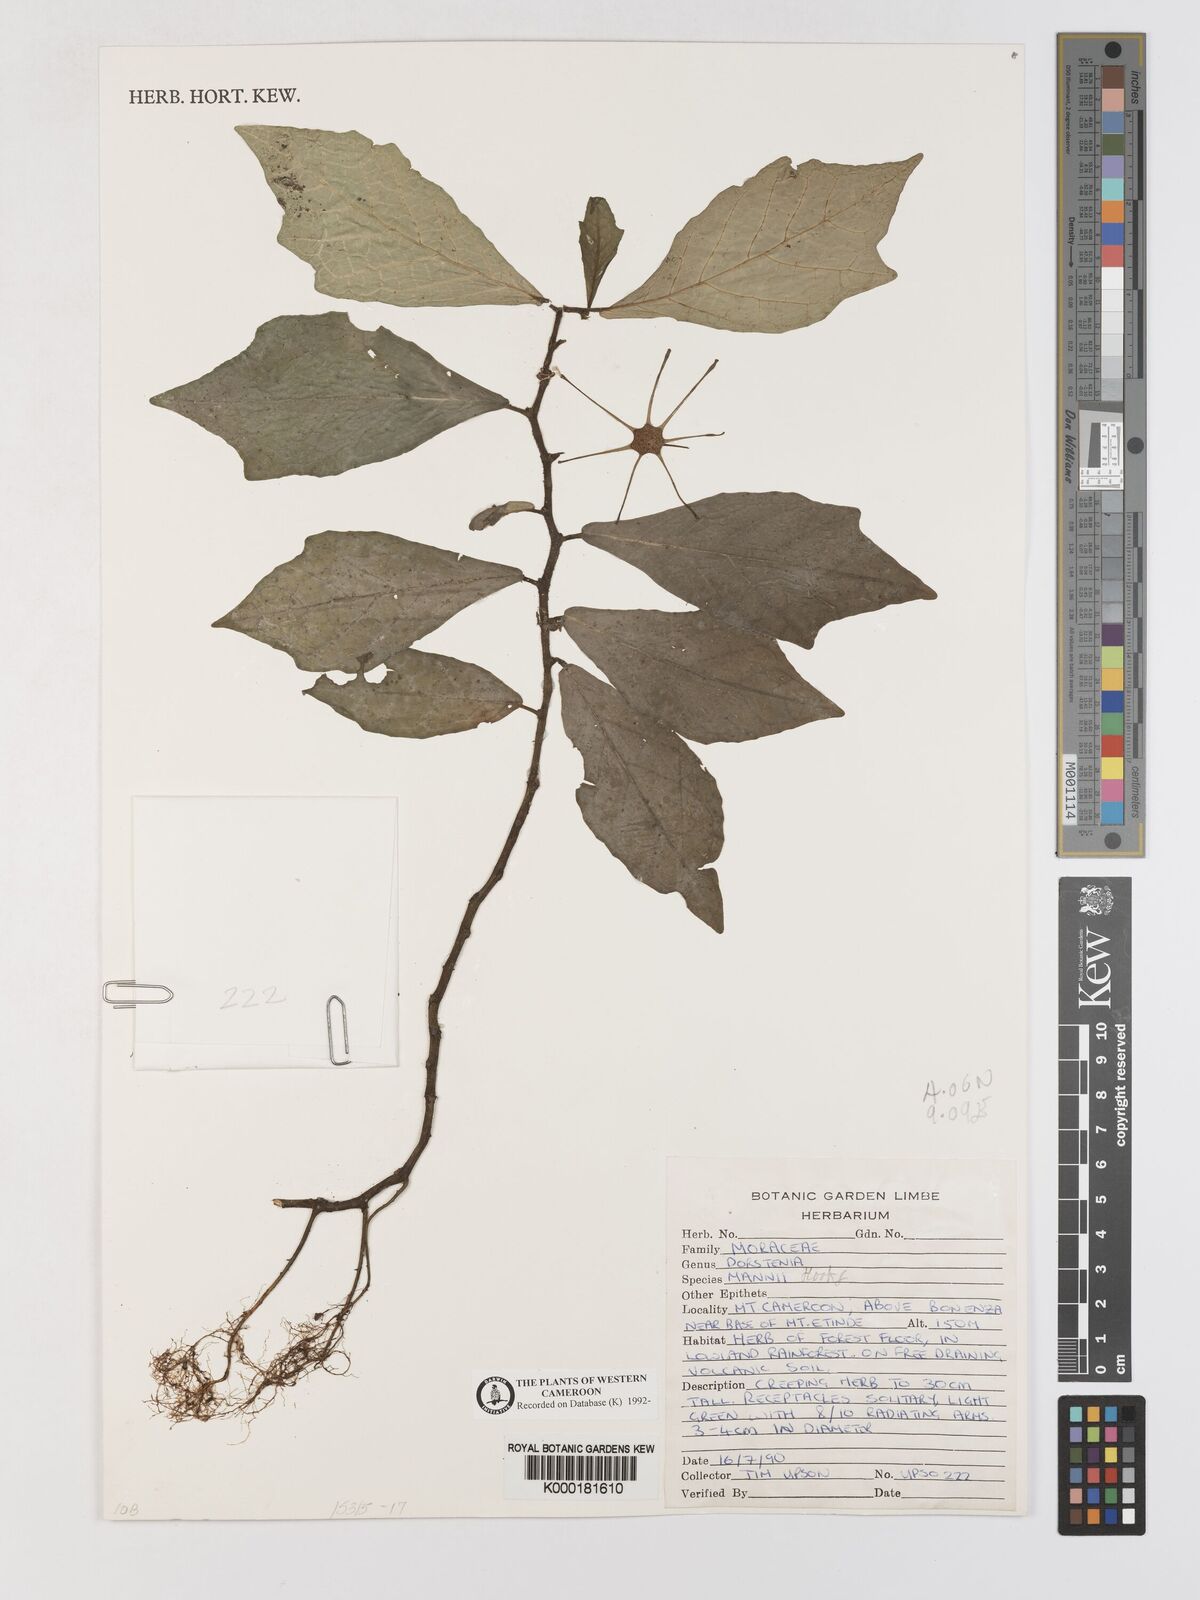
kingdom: Plantae
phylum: Tracheophyta
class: Magnoliopsida
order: Rosales
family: Moraceae
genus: Dorstenia
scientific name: Dorstenia mannii
